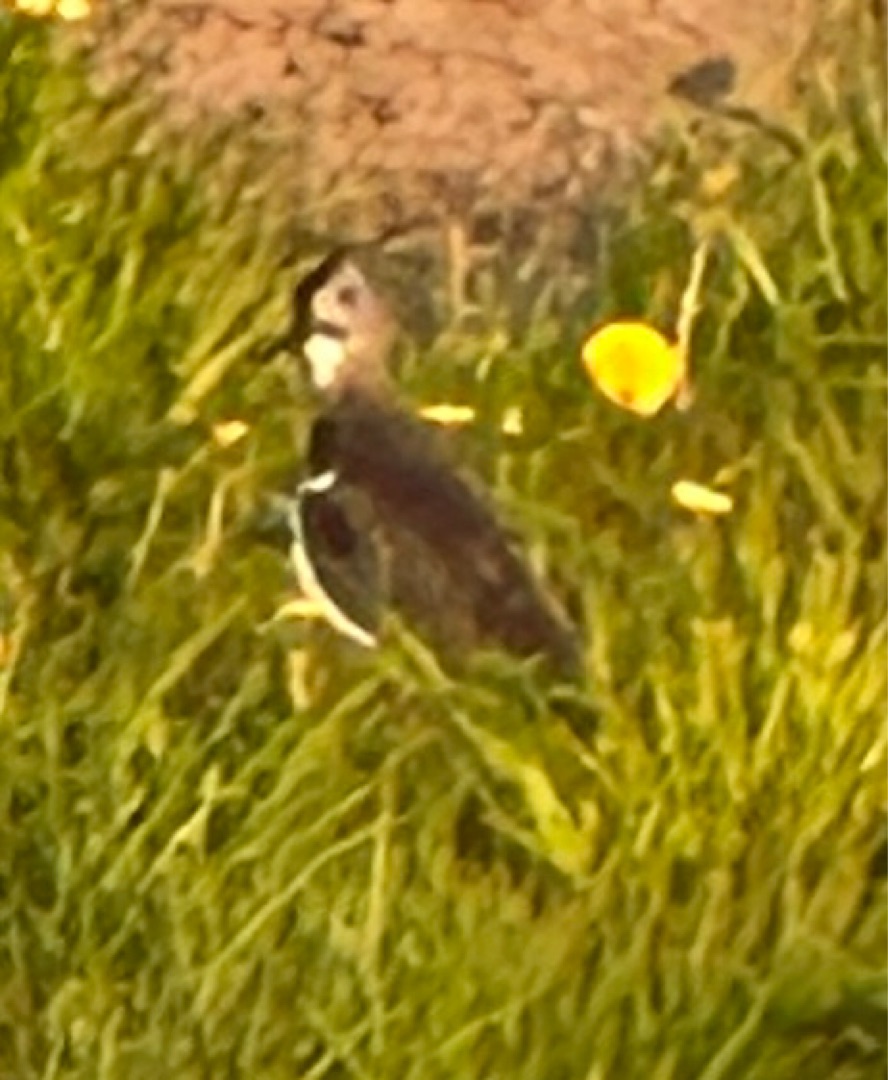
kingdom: Animalia
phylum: Chordata
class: Aves
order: Charadriiformes
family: Charadriidae
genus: Vanellus
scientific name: Vanellus vanellus
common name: Vibe
